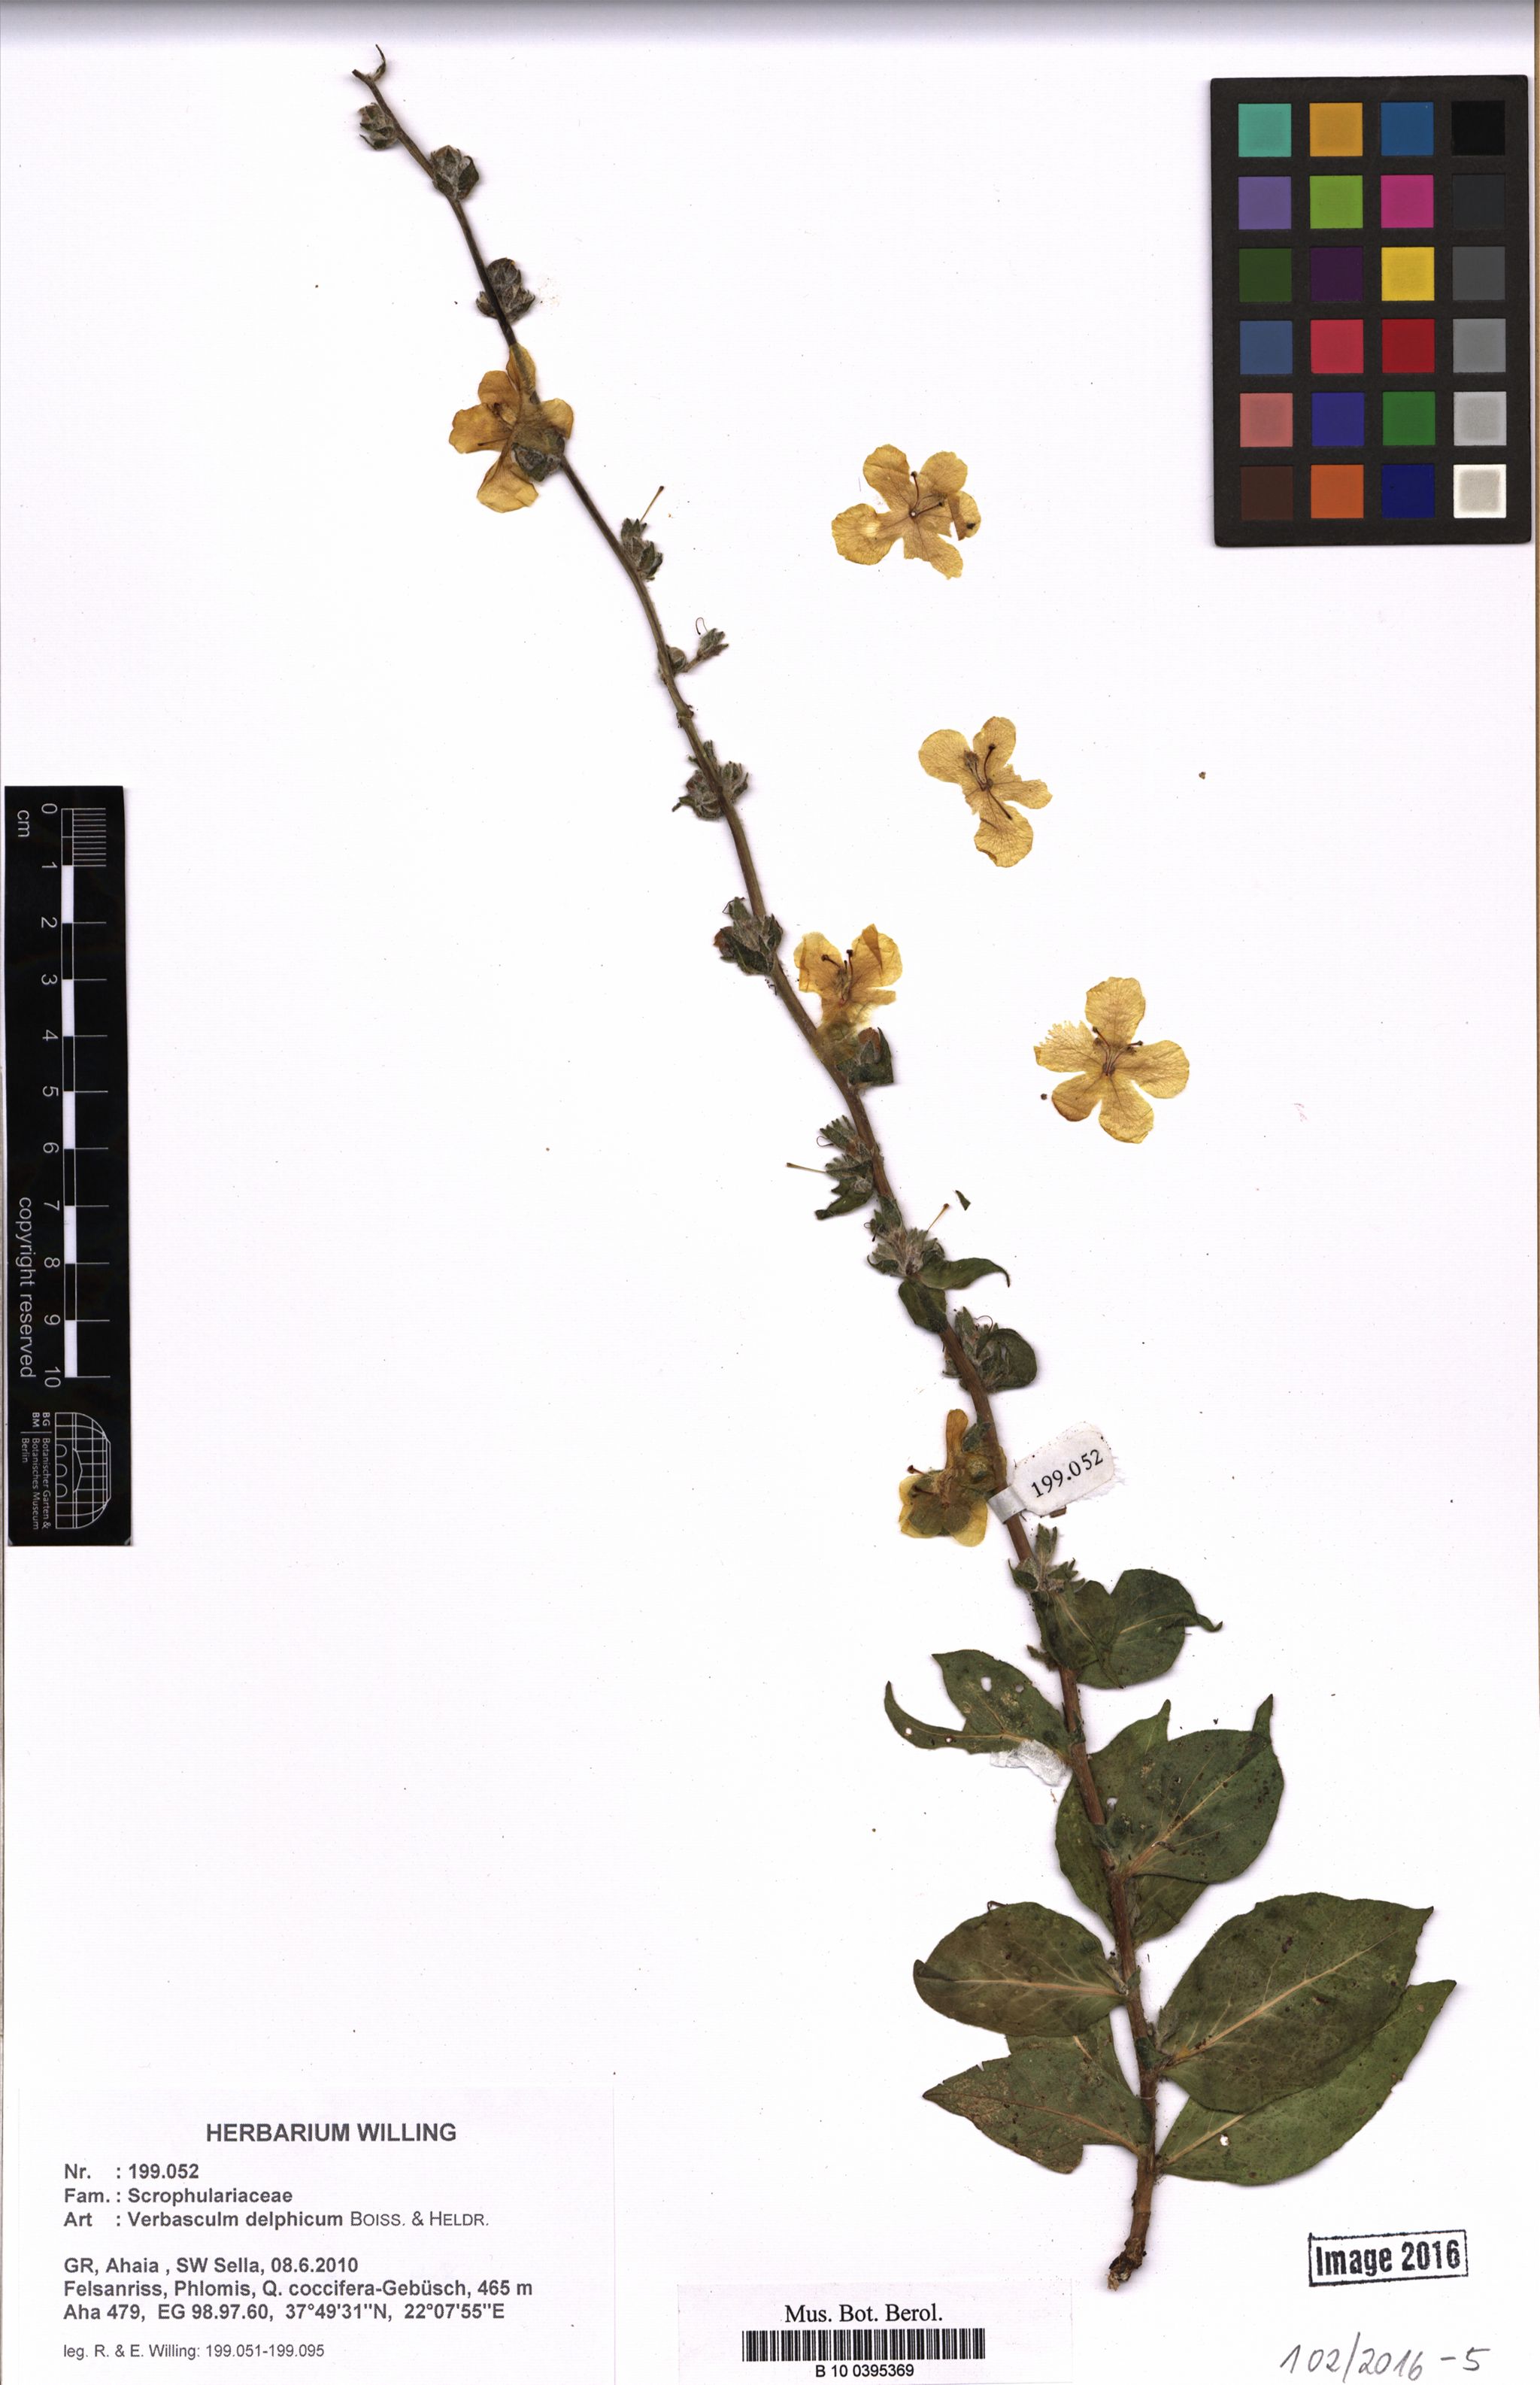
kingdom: Plantae
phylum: Tracheophyta
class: Magnoliopsida
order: Lamiales
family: Scrophulariaceae
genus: Verbascum
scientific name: Verbascum samniticum
